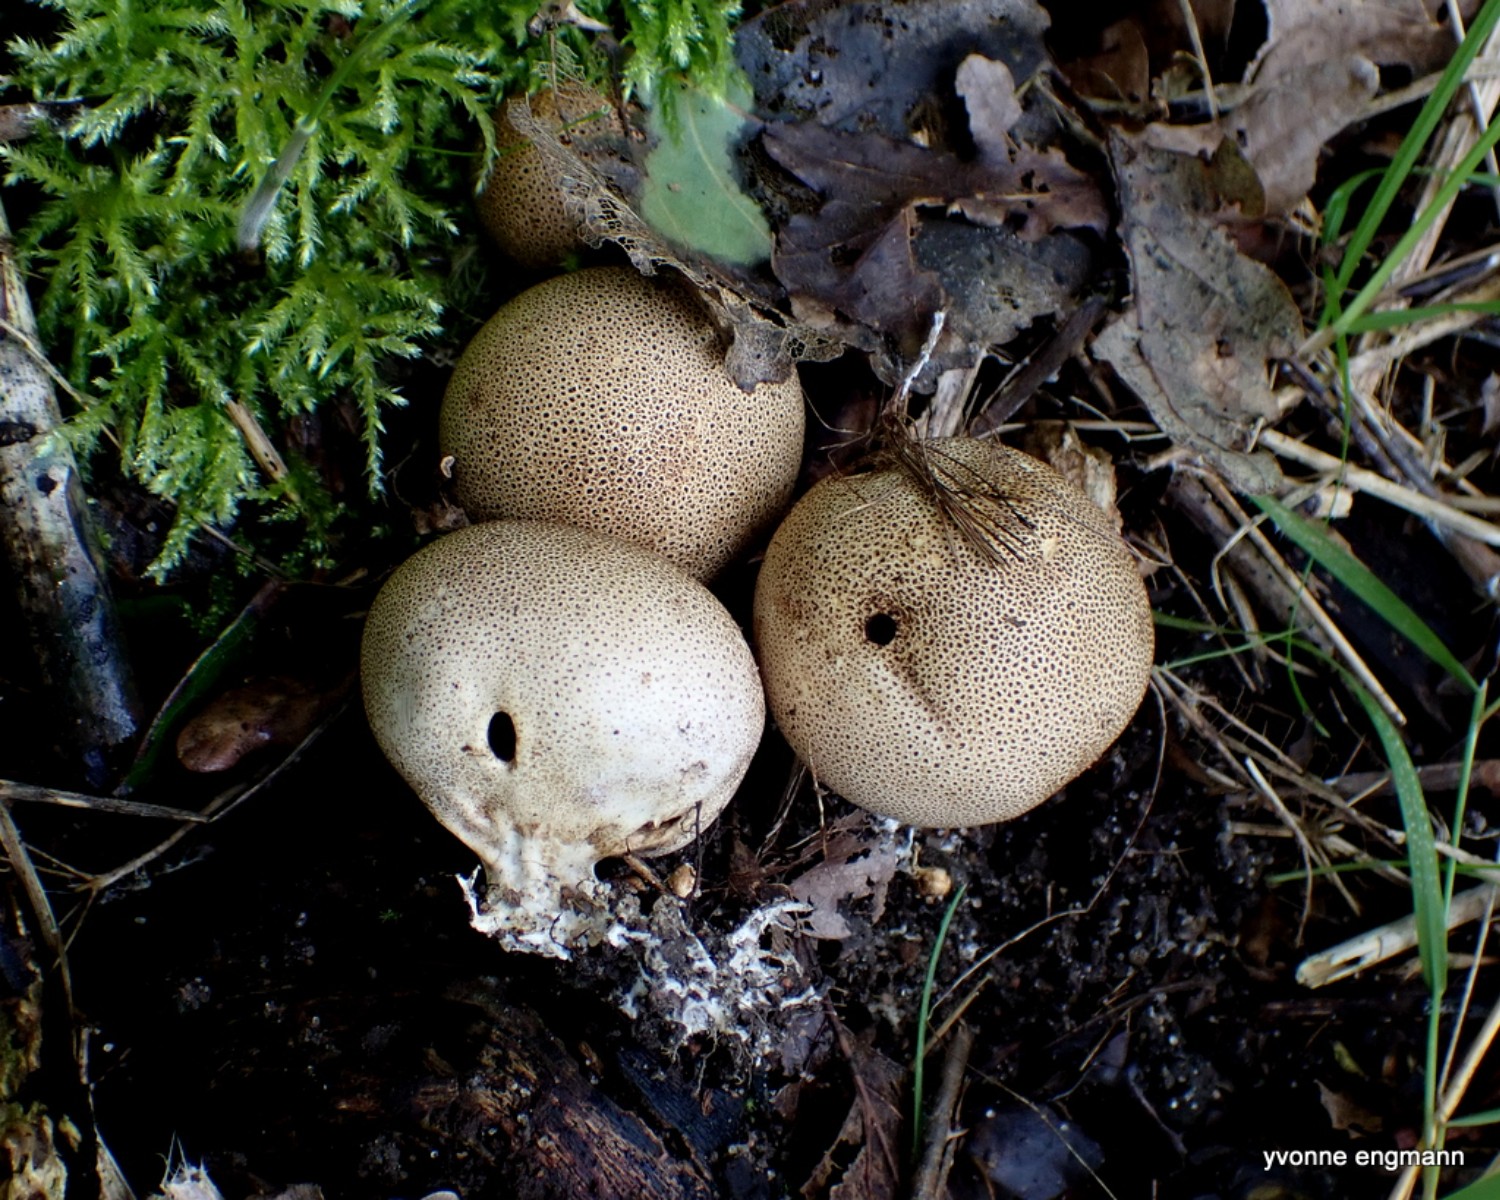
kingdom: Fungi
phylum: Basidiomycota
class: Agaricomycetes
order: Boletales
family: Sclerodermataceae
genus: Scleroderma
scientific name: Scleroderma areolatum
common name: plettet bruskbold
